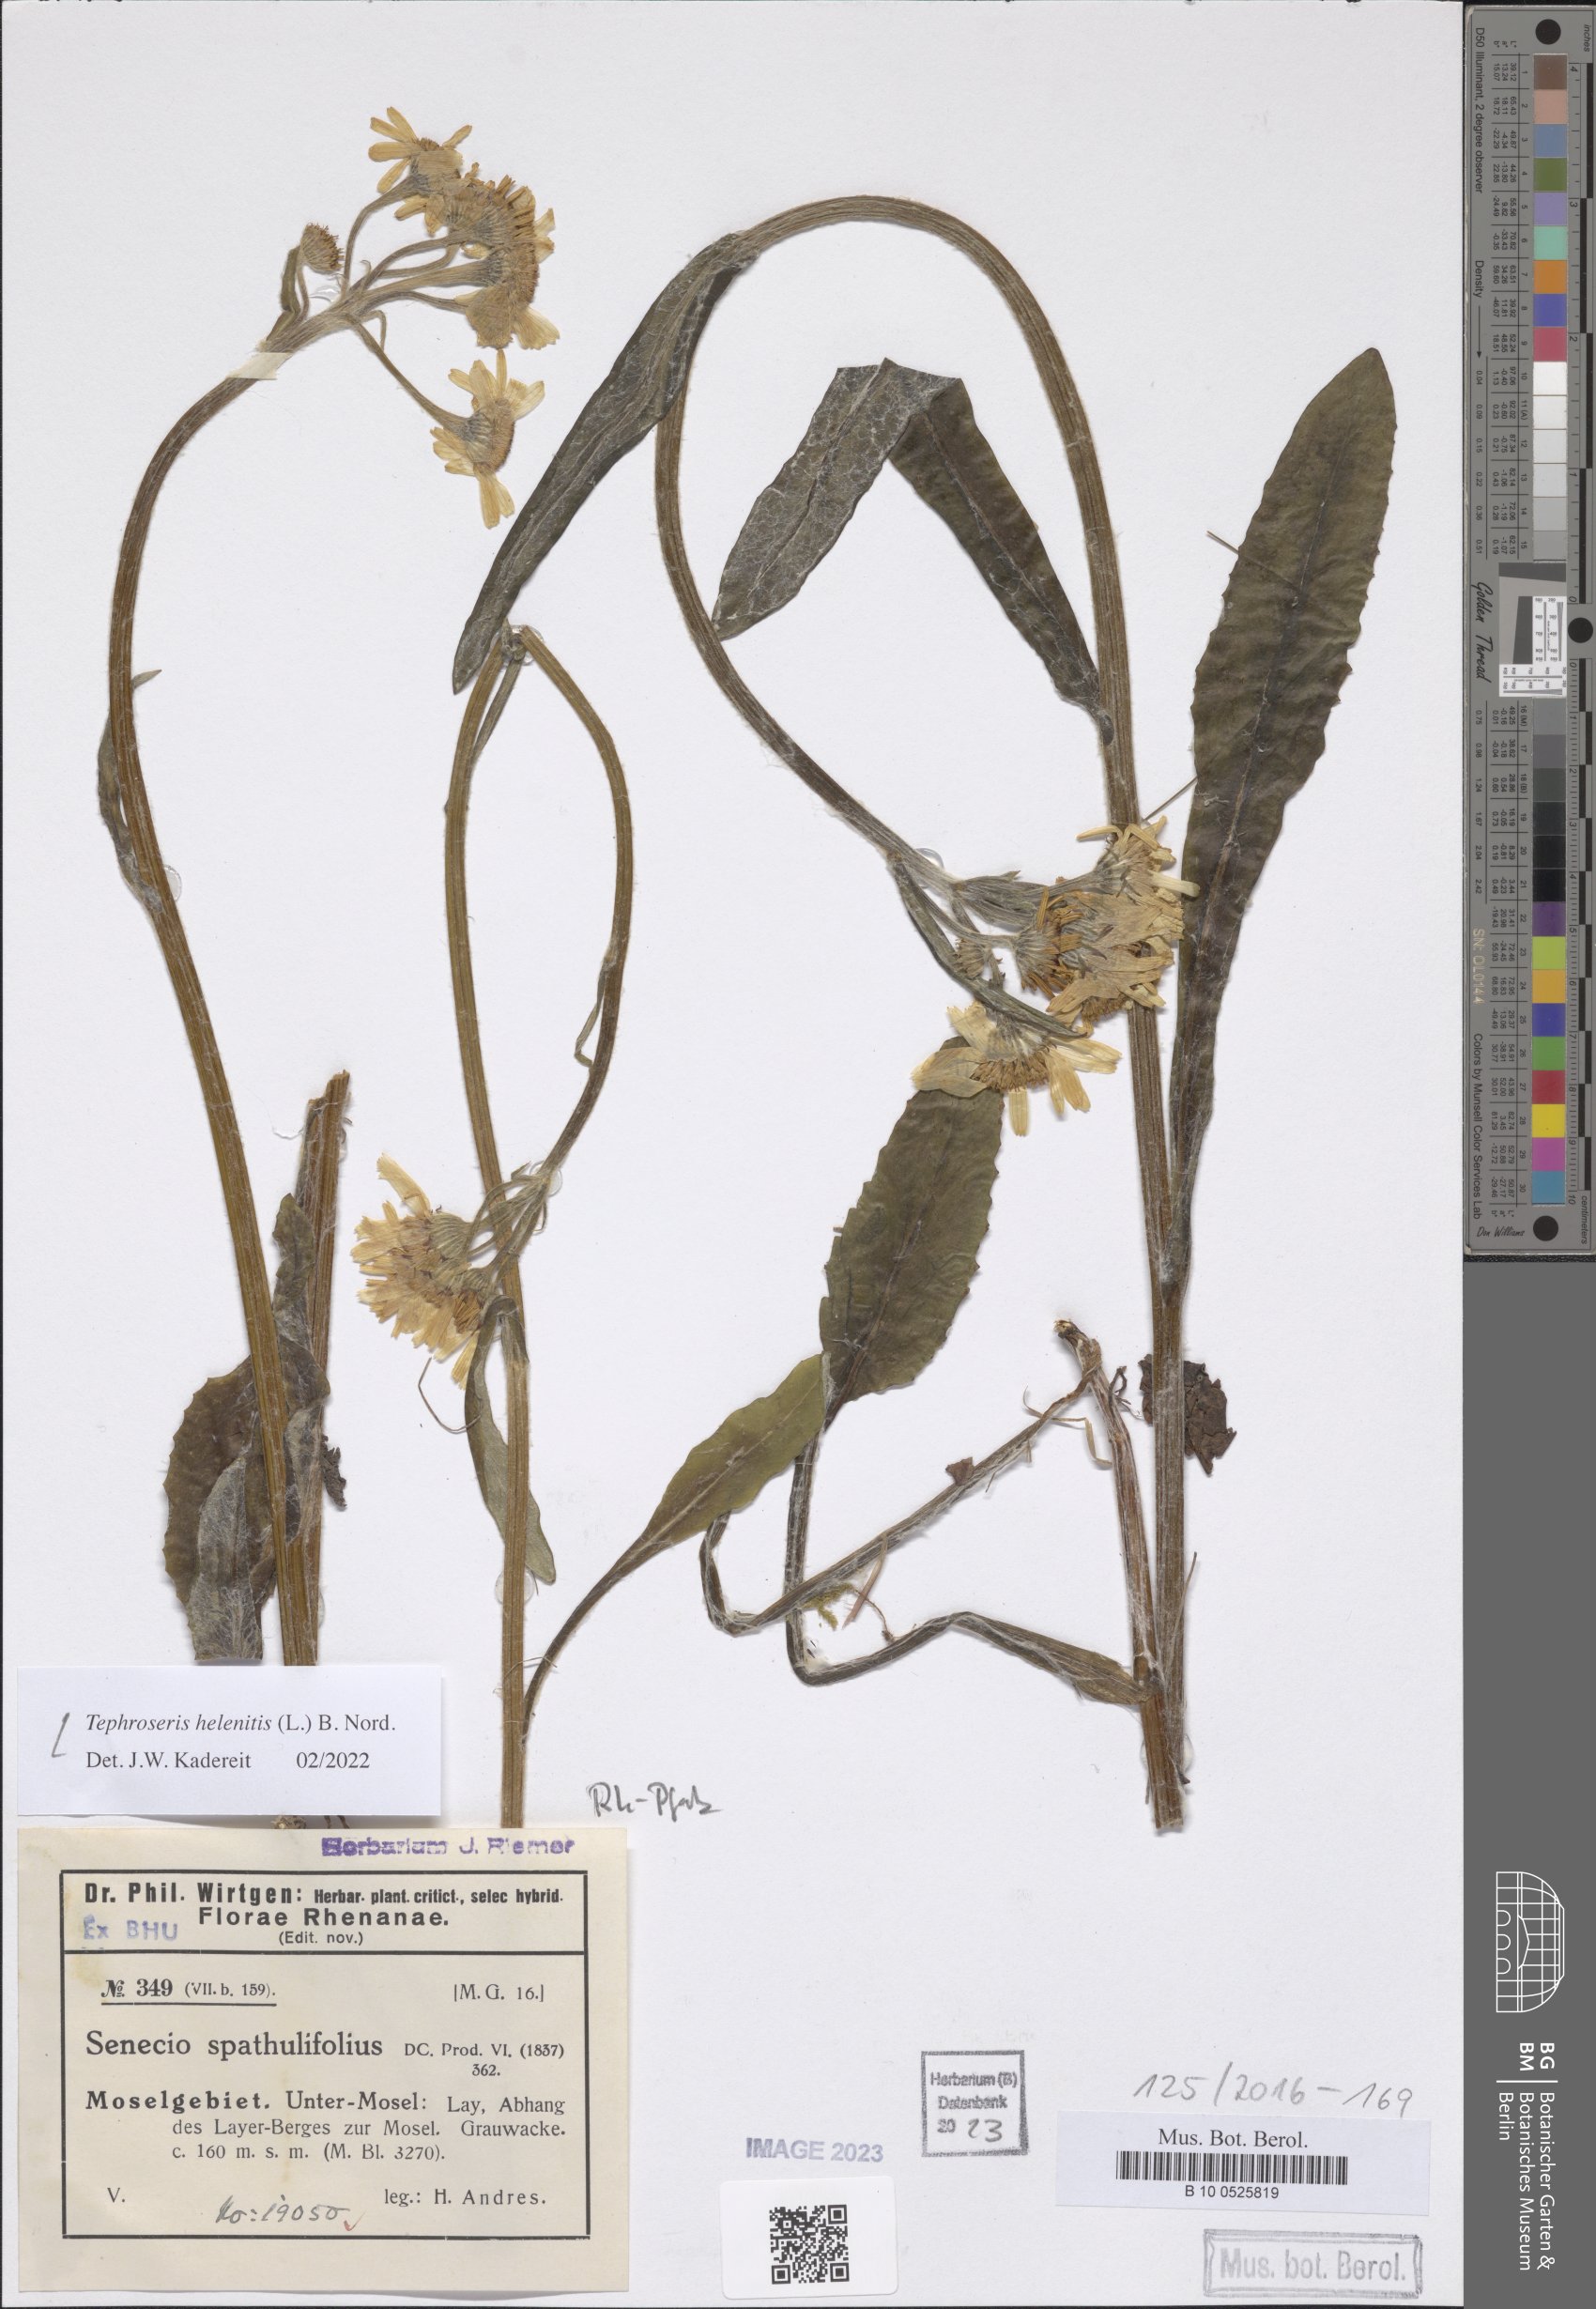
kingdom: Plantae
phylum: Tracheophyta
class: Magnoliopsida
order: Asterales
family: Asteraceae
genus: Tephroseris
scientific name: Tephroseris helenitis
